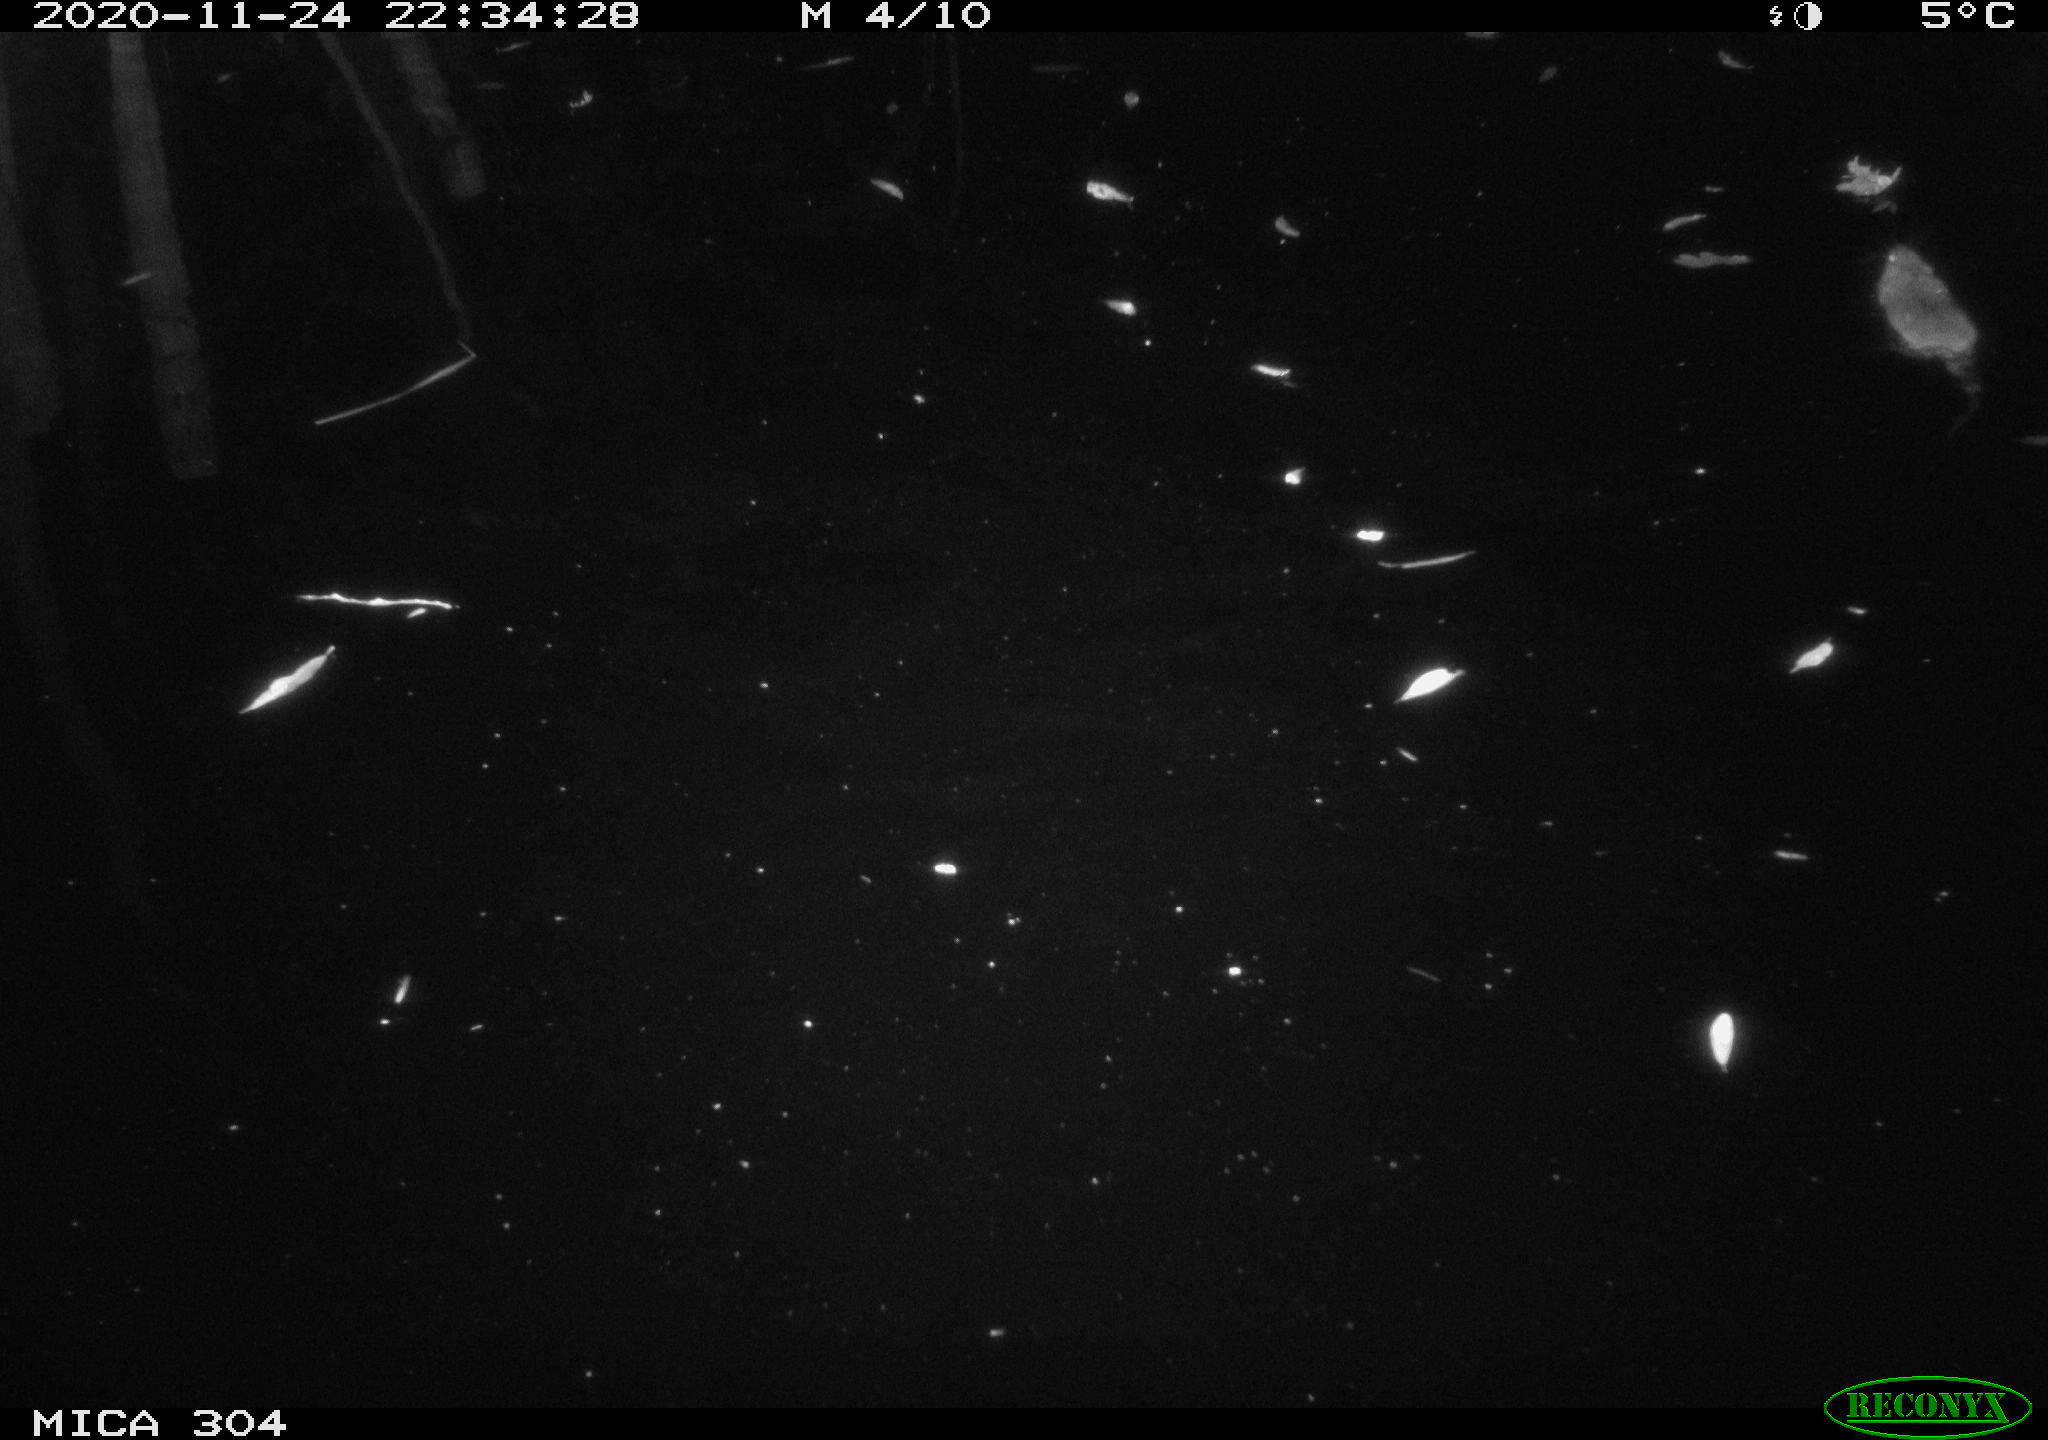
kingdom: Animalia
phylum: Chordata
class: Mammalia
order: Rodentia
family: Muridae
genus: Rattus
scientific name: Rattus norvegicus
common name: Brown rat
